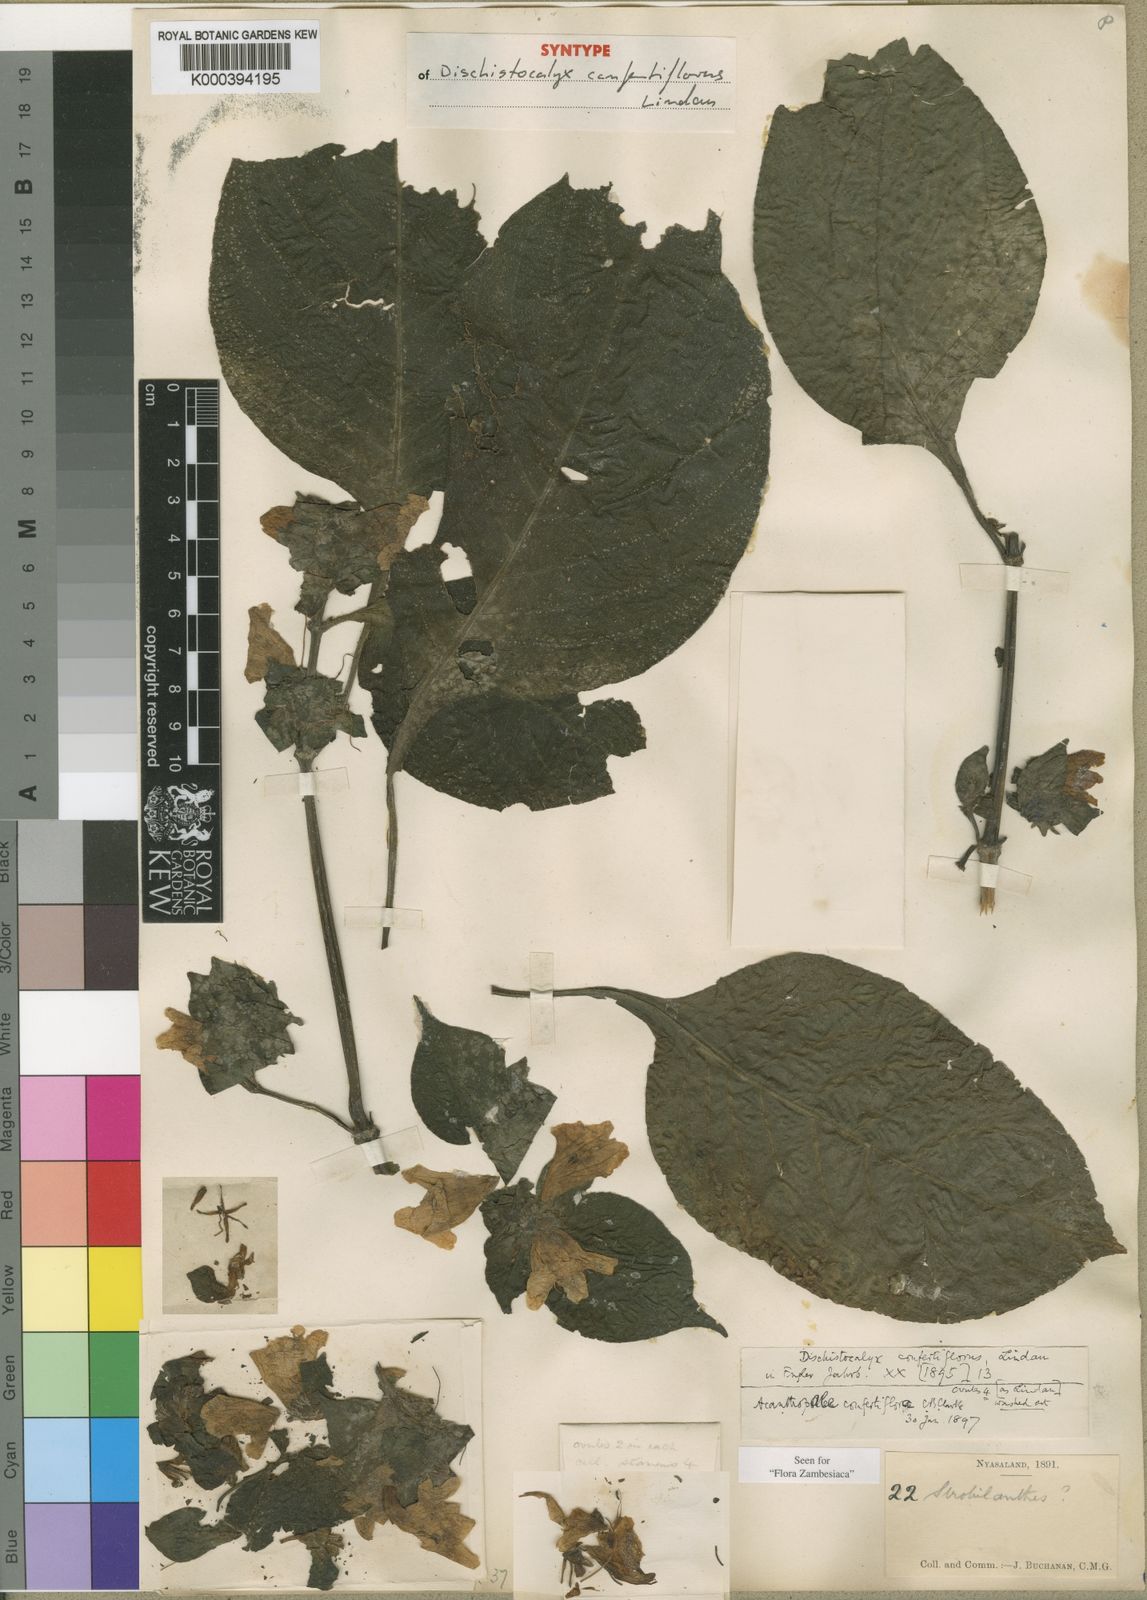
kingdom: Plantae
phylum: Tracheophyta
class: Magnoliopsida
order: Lamiales
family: Acanthaceae
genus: Acanthopale
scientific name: Acanthopale confertiflora
